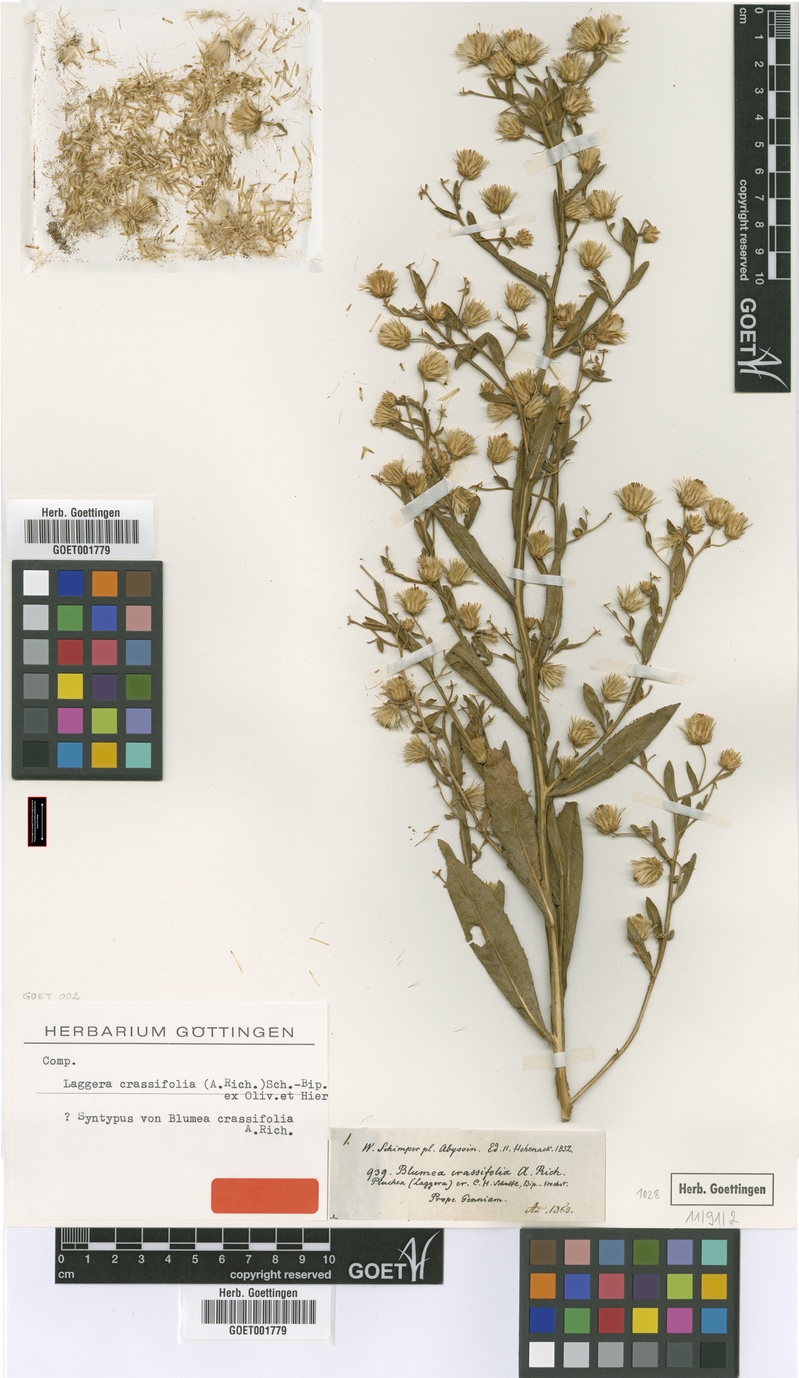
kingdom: Plantae
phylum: Tracheophyta
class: Magnoliopsida
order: Asterales
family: Asteraceae
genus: Laggera
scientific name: Laggera crassifolia
